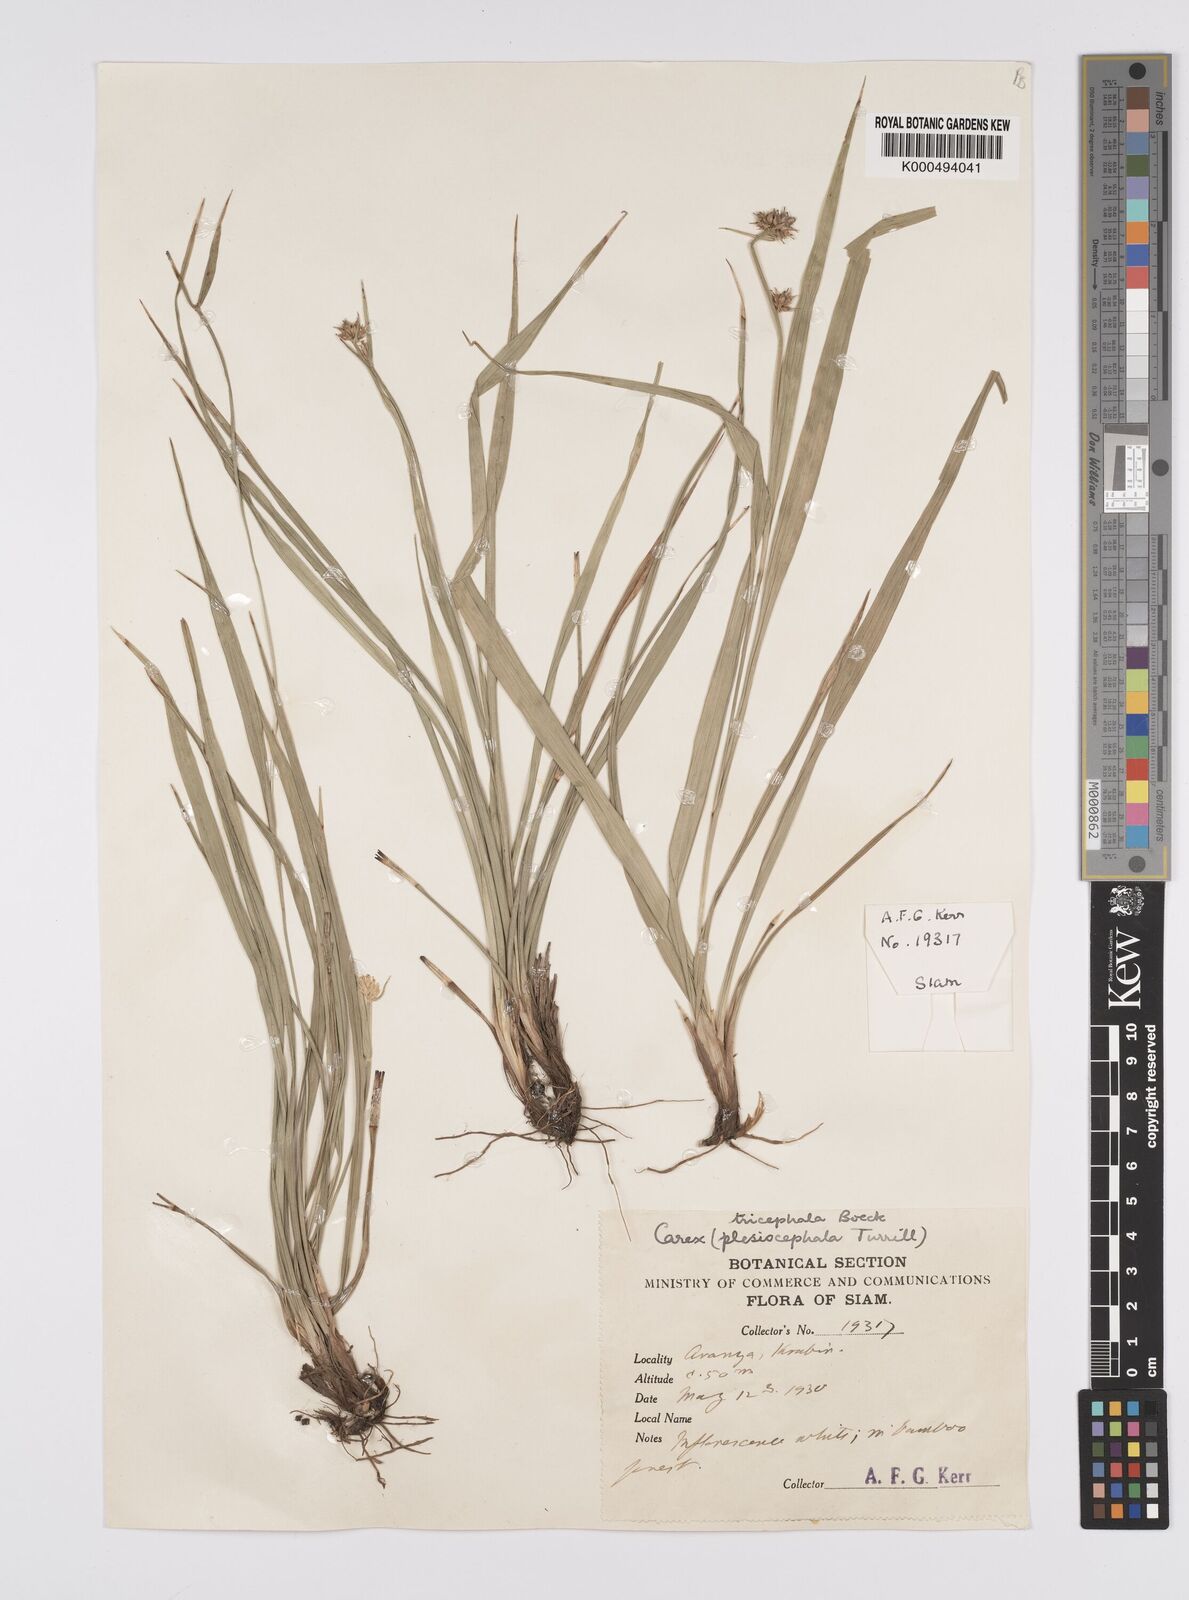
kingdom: Plantae
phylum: Tracheophyta
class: Liliopsida
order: Poales
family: Cyperaceae
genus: Carex
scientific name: Carex tricephala
